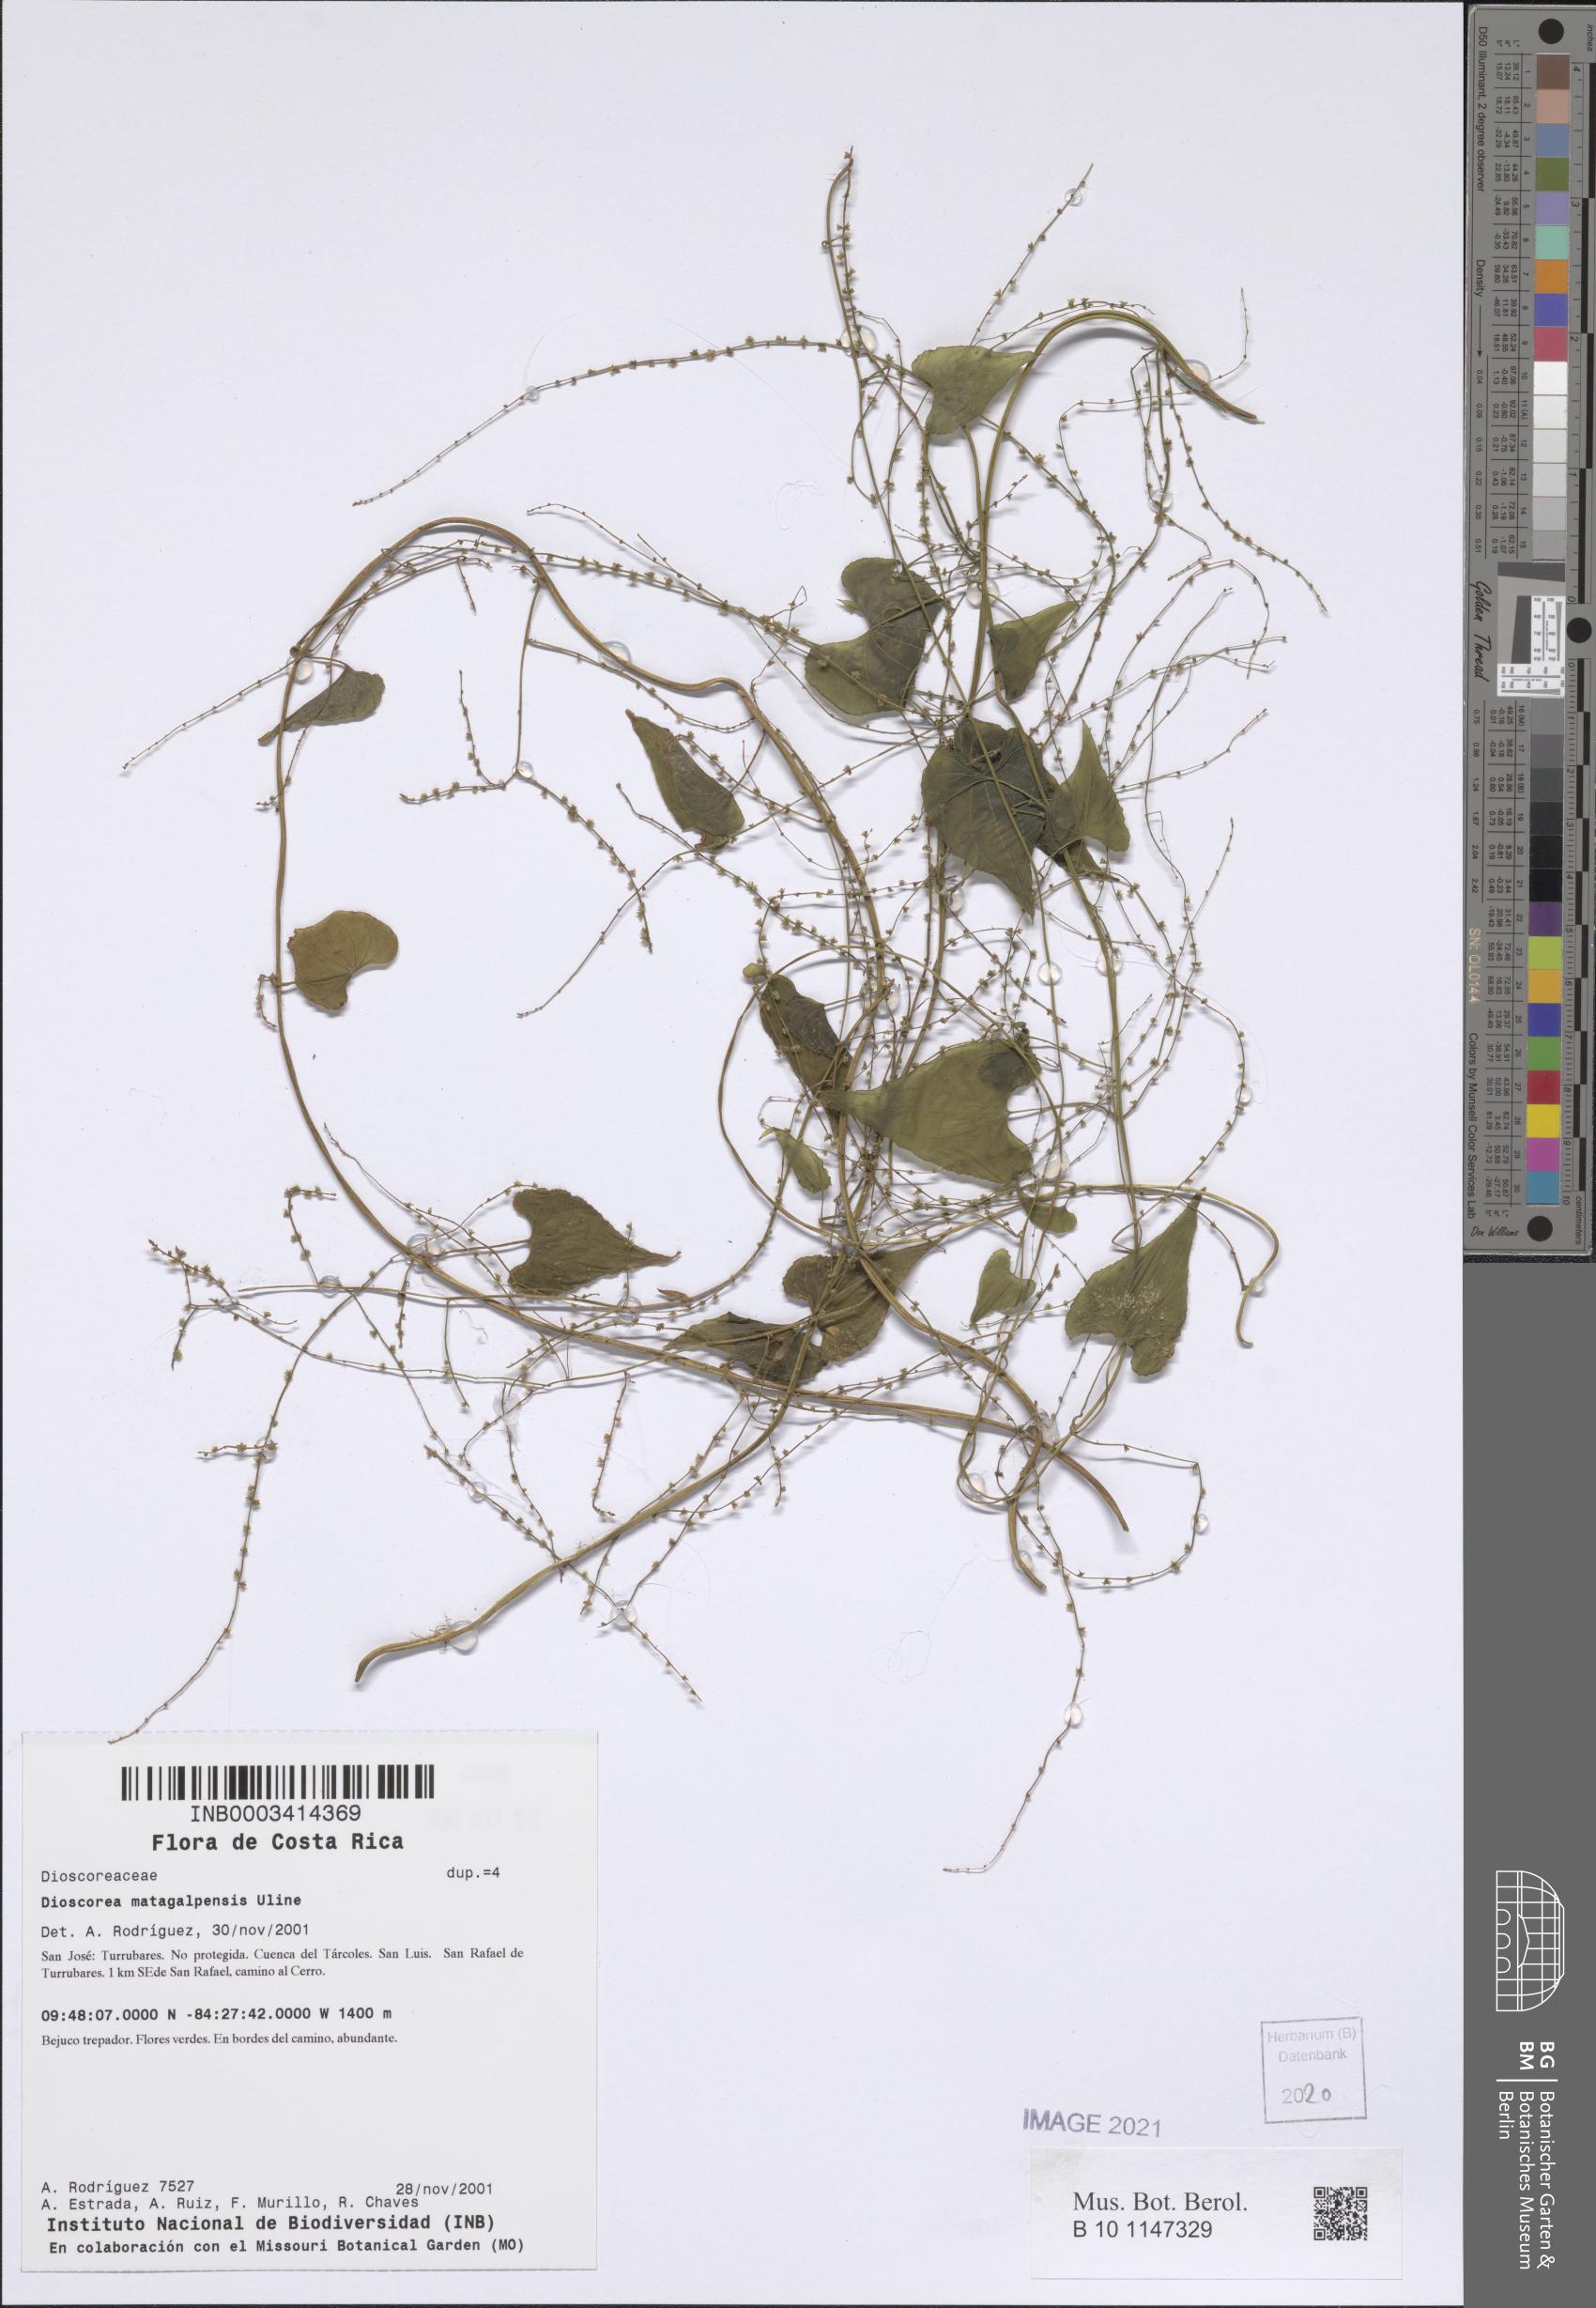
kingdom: Plantae
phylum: Tracheophyta
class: Liliopsida
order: Dioscoreales
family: Dioscoreaceae
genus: Dioscorea
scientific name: Dioscorea matagalpensis
